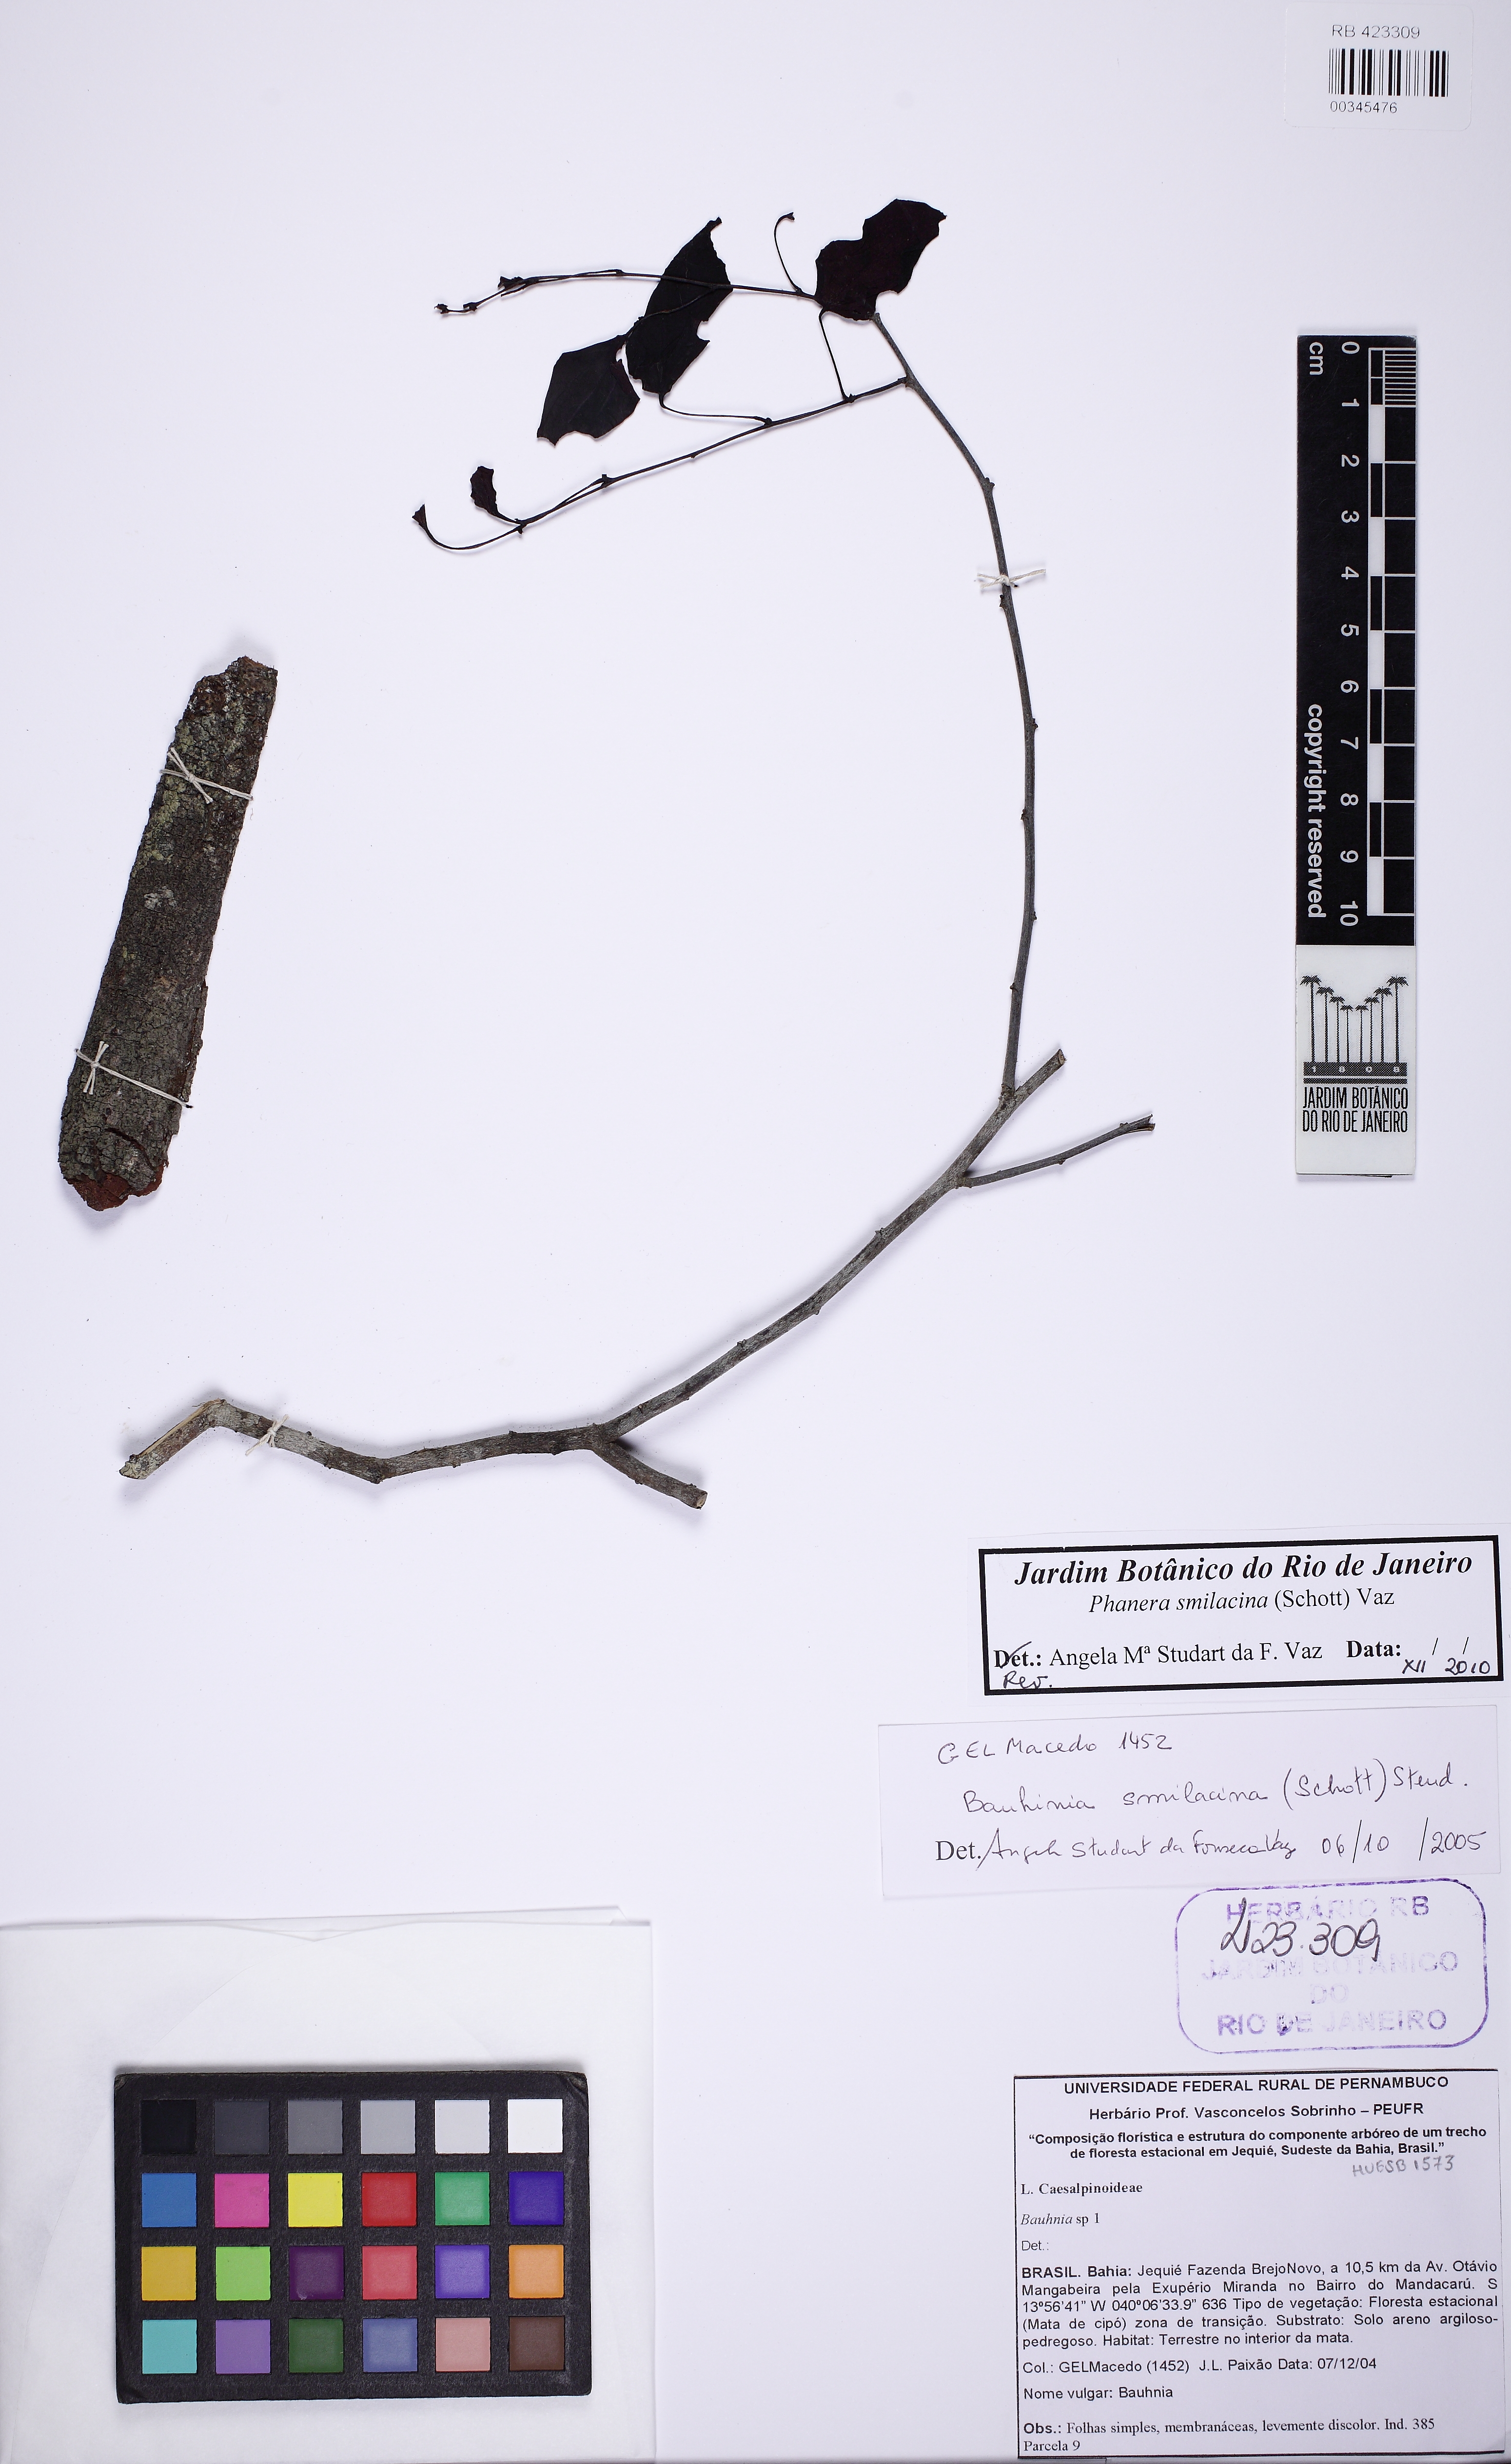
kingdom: Plantae
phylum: Tracheophyta
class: Magnoliopsida
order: Fabales
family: Fabaceae
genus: Schnella
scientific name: Schnella smilacina
